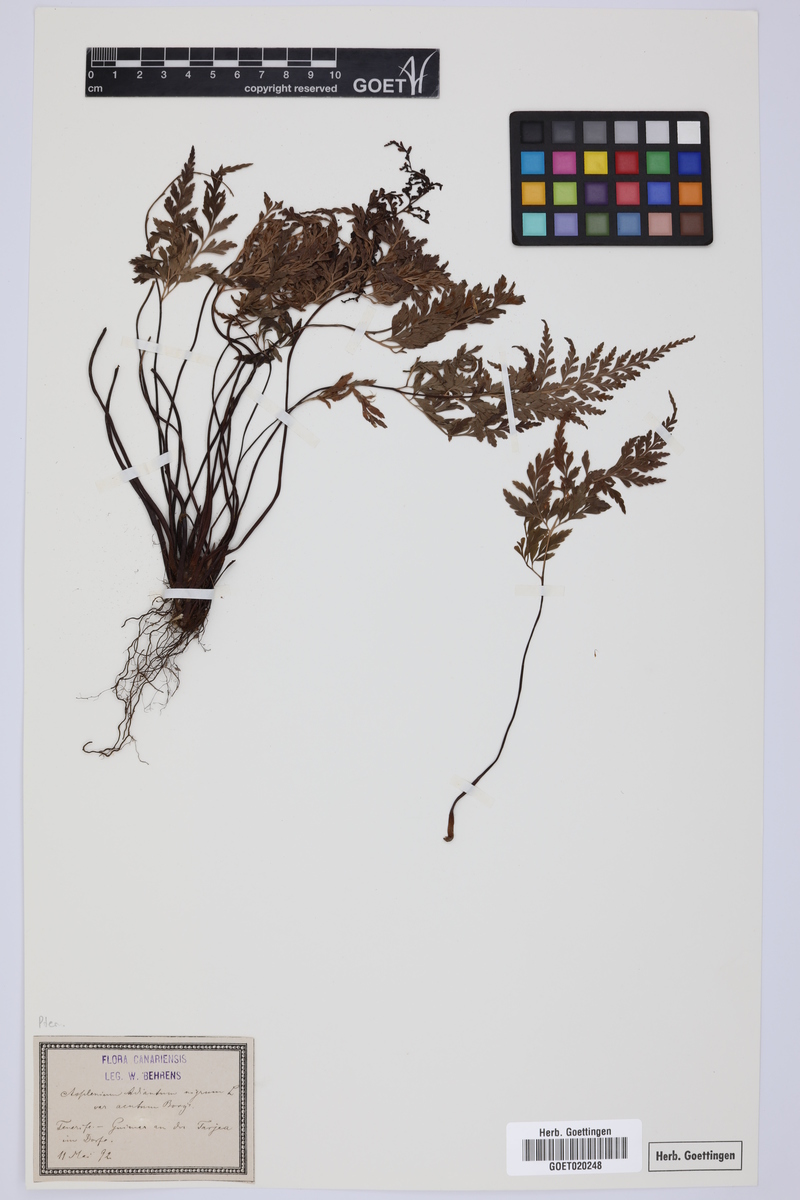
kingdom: Plantae
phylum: Tracheophyta
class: Polypodiopsida
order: Polypodiales
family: Aspleniaceae
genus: Asplenium
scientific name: Asplenium onopteris
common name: Irish spleenwort
